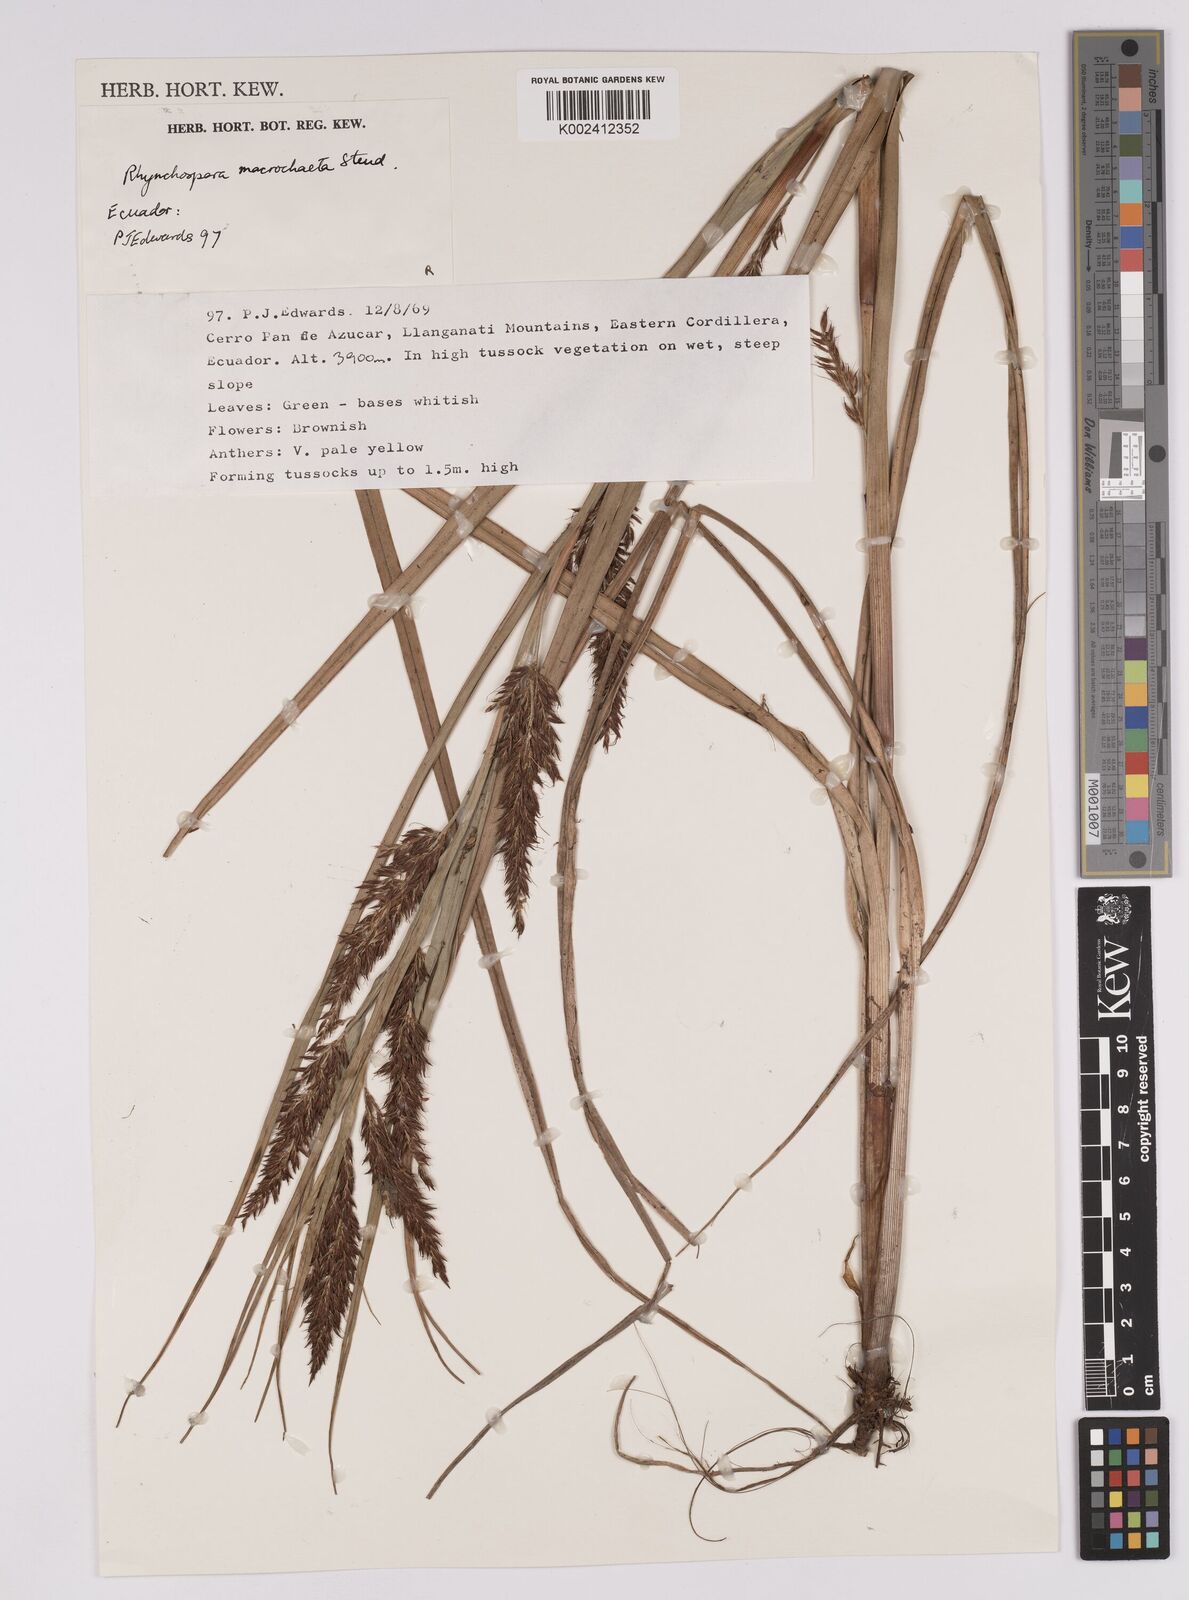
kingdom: Plantae
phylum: Tracheophyta
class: Liliopsida
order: Poales
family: Cyperaceae
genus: Rhynchospora
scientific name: Rhynchospora macrochaeta
